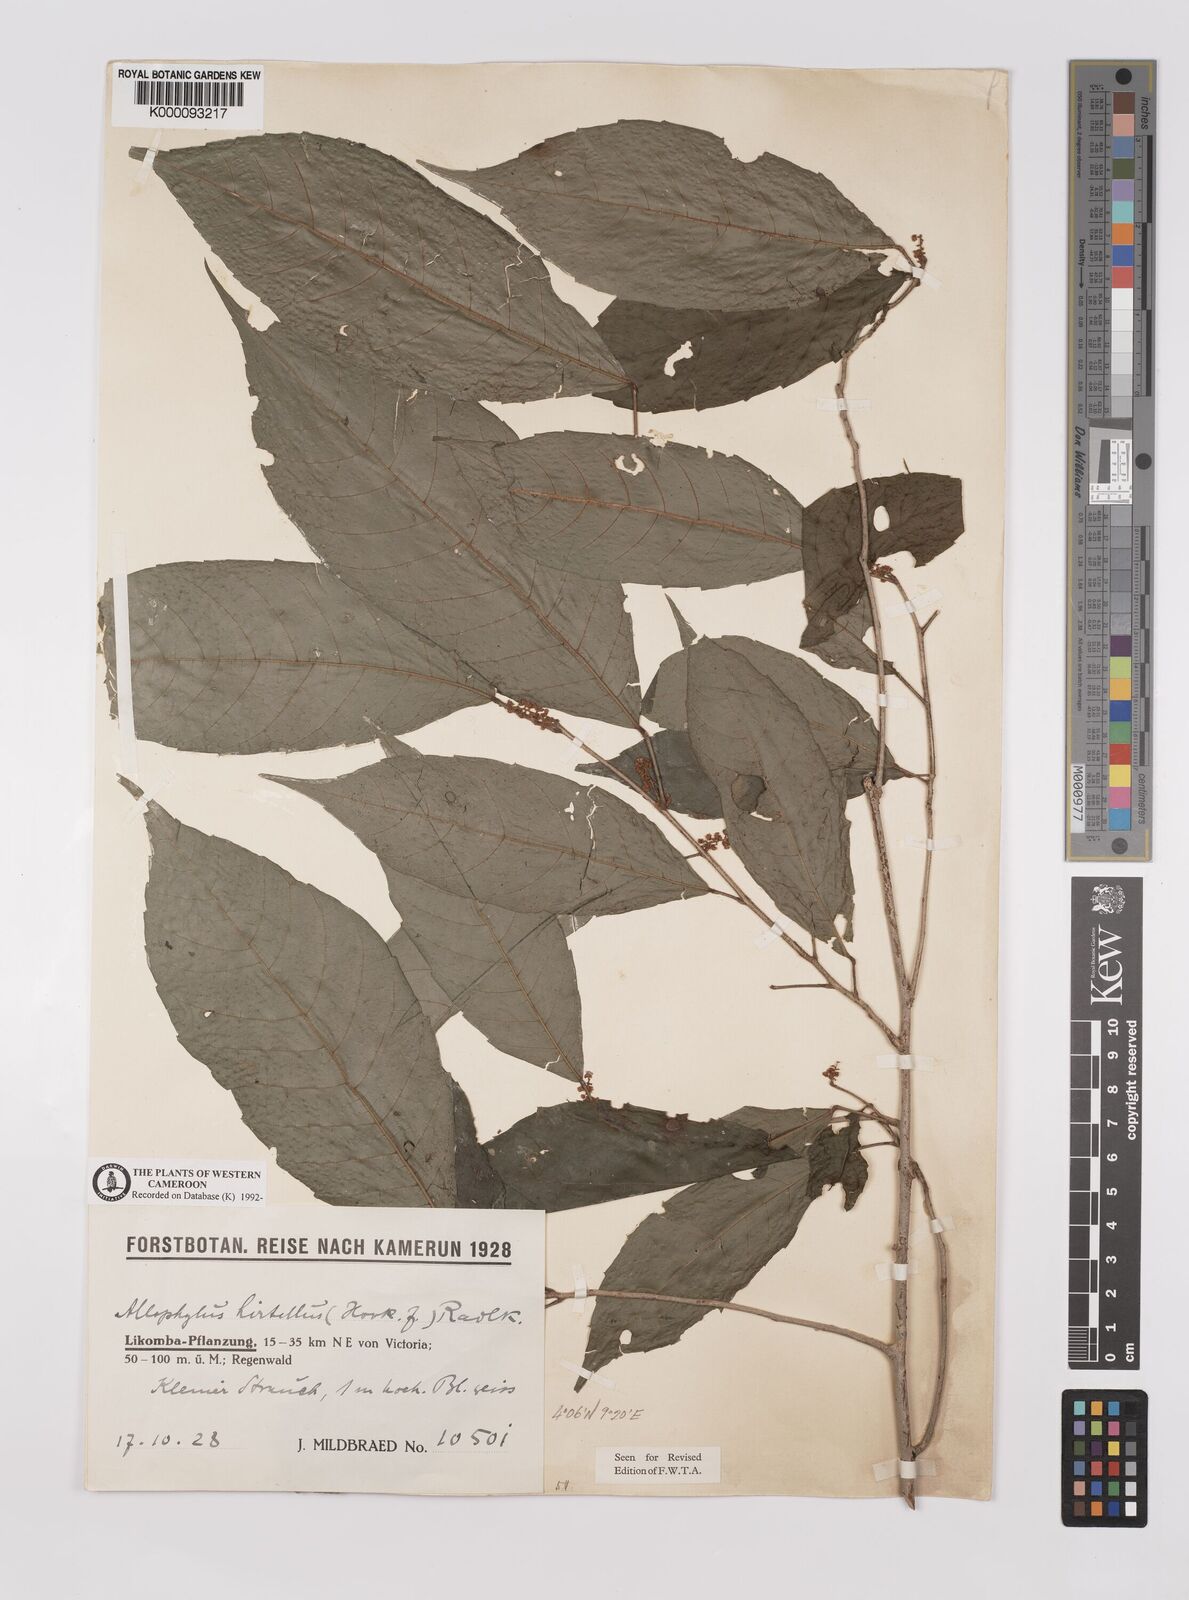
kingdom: Plantae
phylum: Tracheophyta
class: Magnoliopsida
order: Sapindales
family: Sapindaceae
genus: Allophylus
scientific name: Allophylus hirtellus
